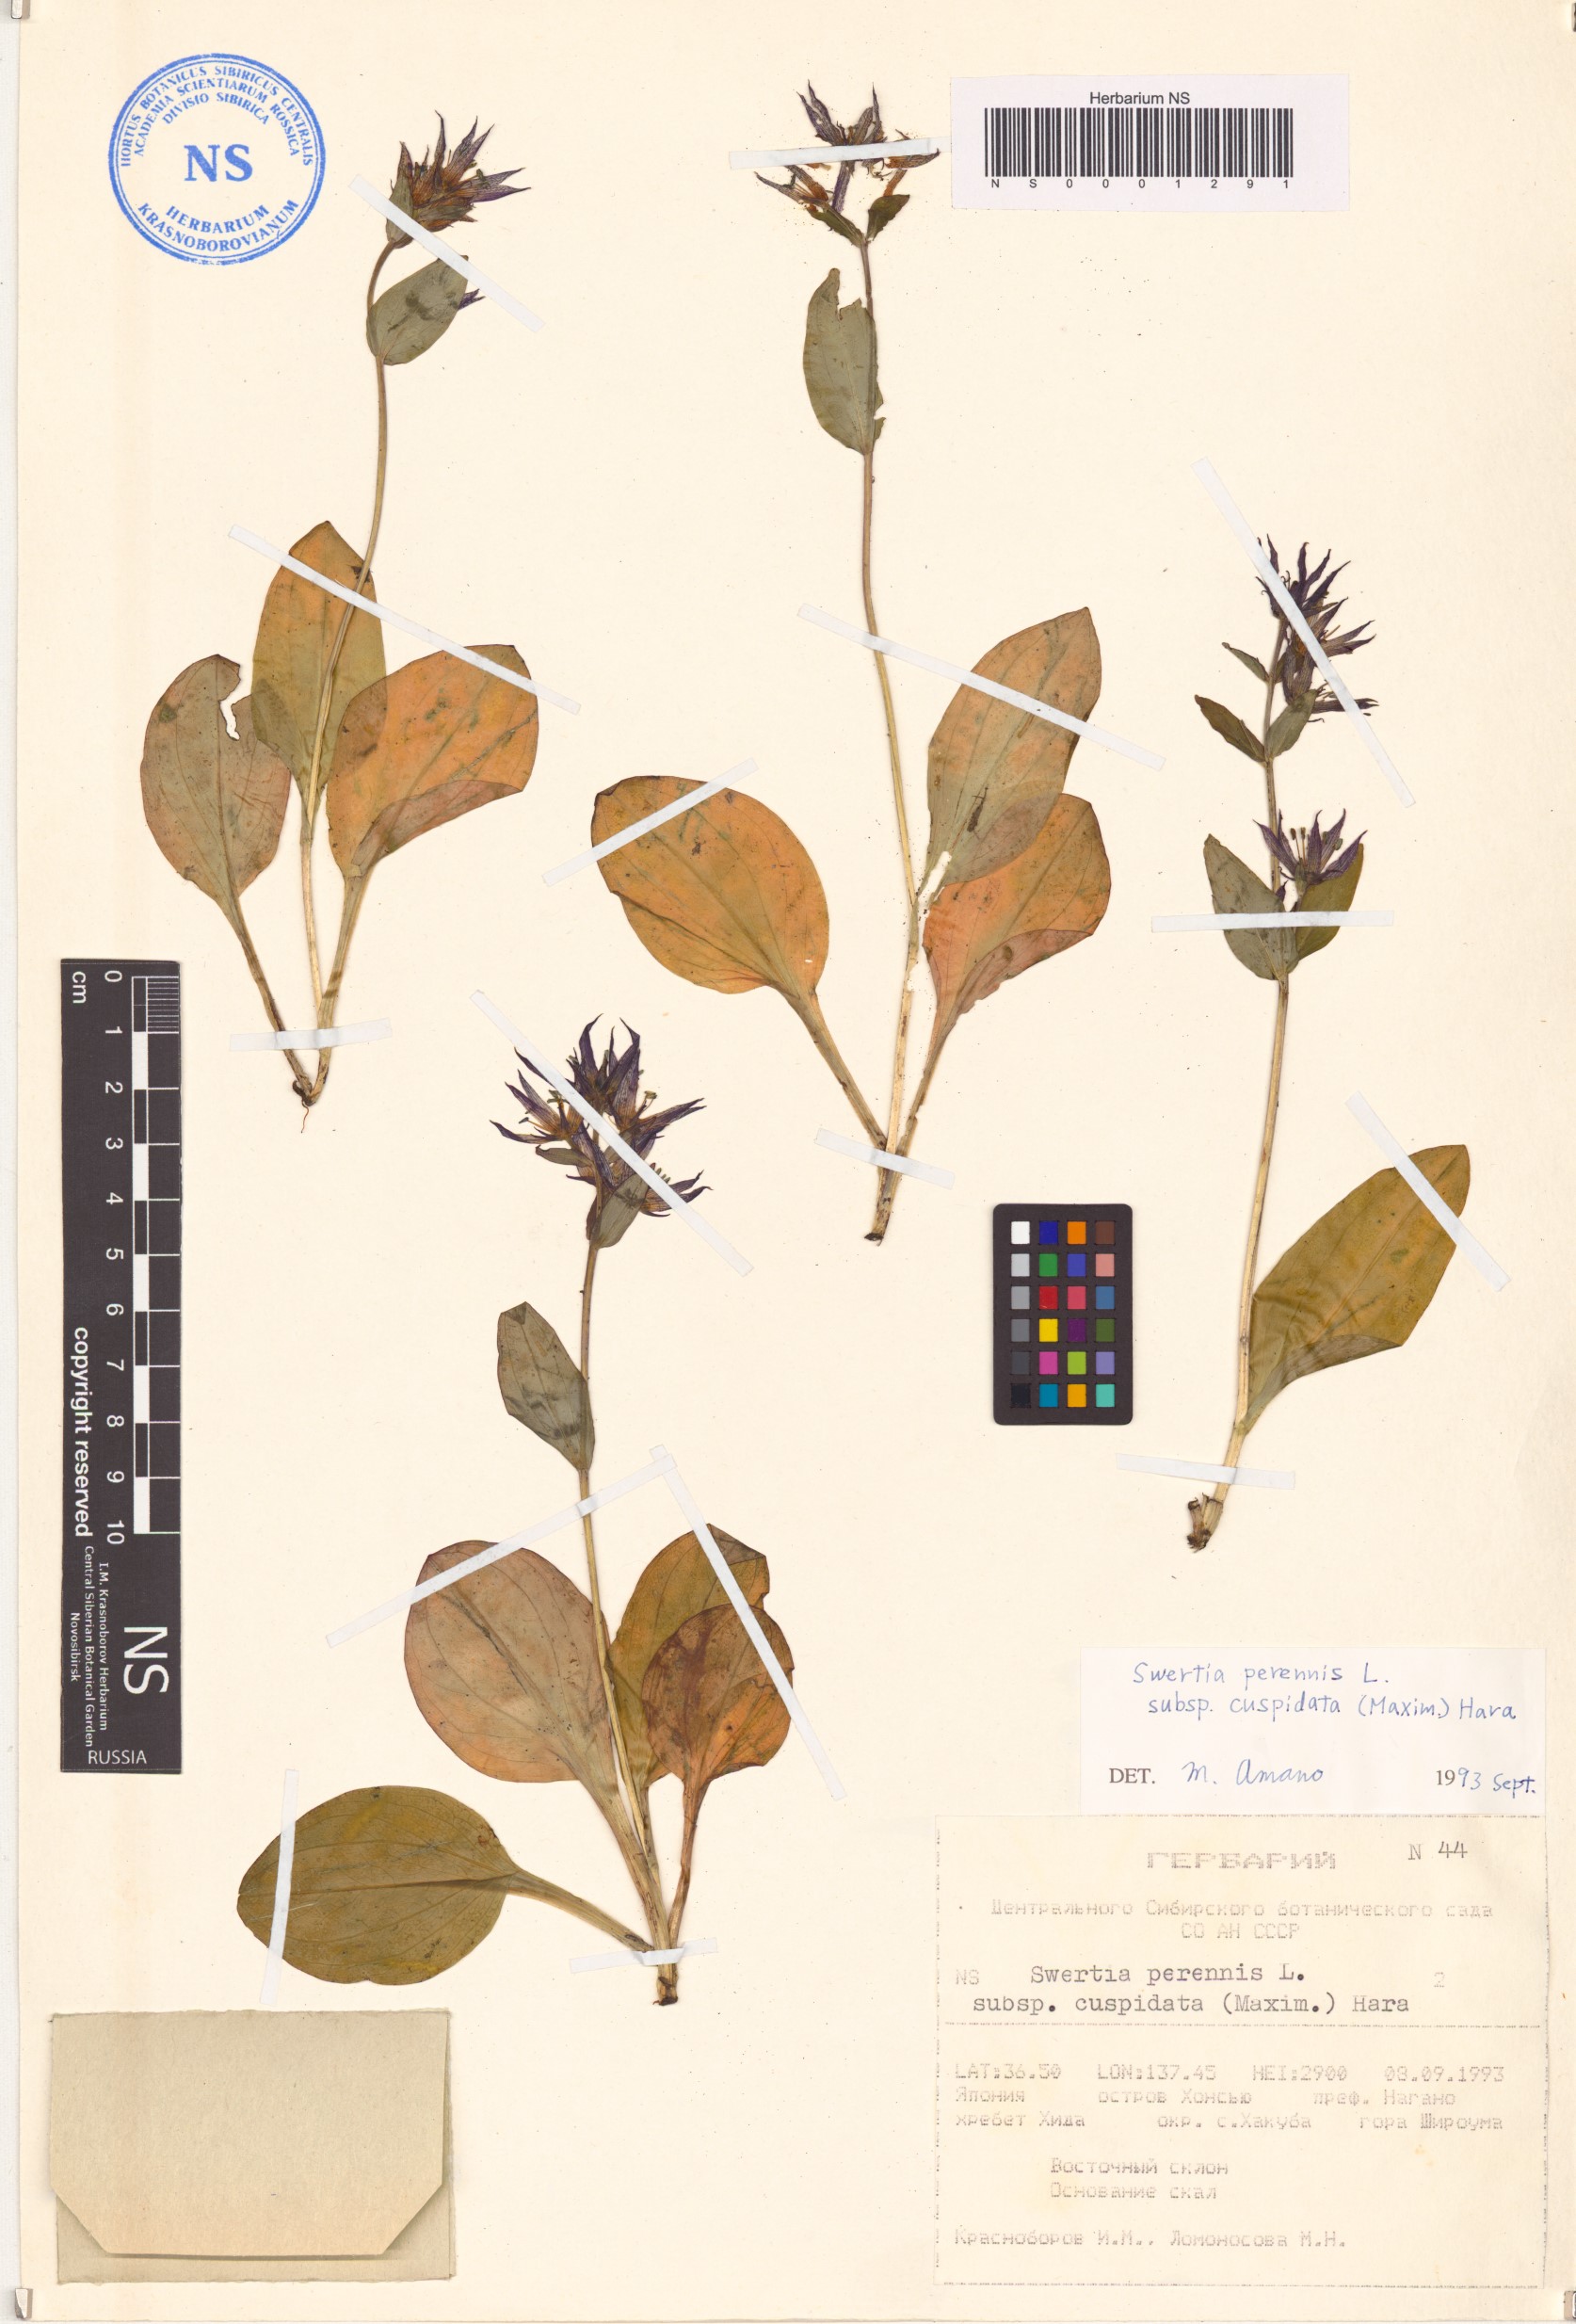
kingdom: Plantae
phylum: Tracheophyta
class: Magnoliopsida
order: Gentianales
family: Gentianaceae
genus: Swertia
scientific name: Swertia perennis
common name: Alpine bog swertia
